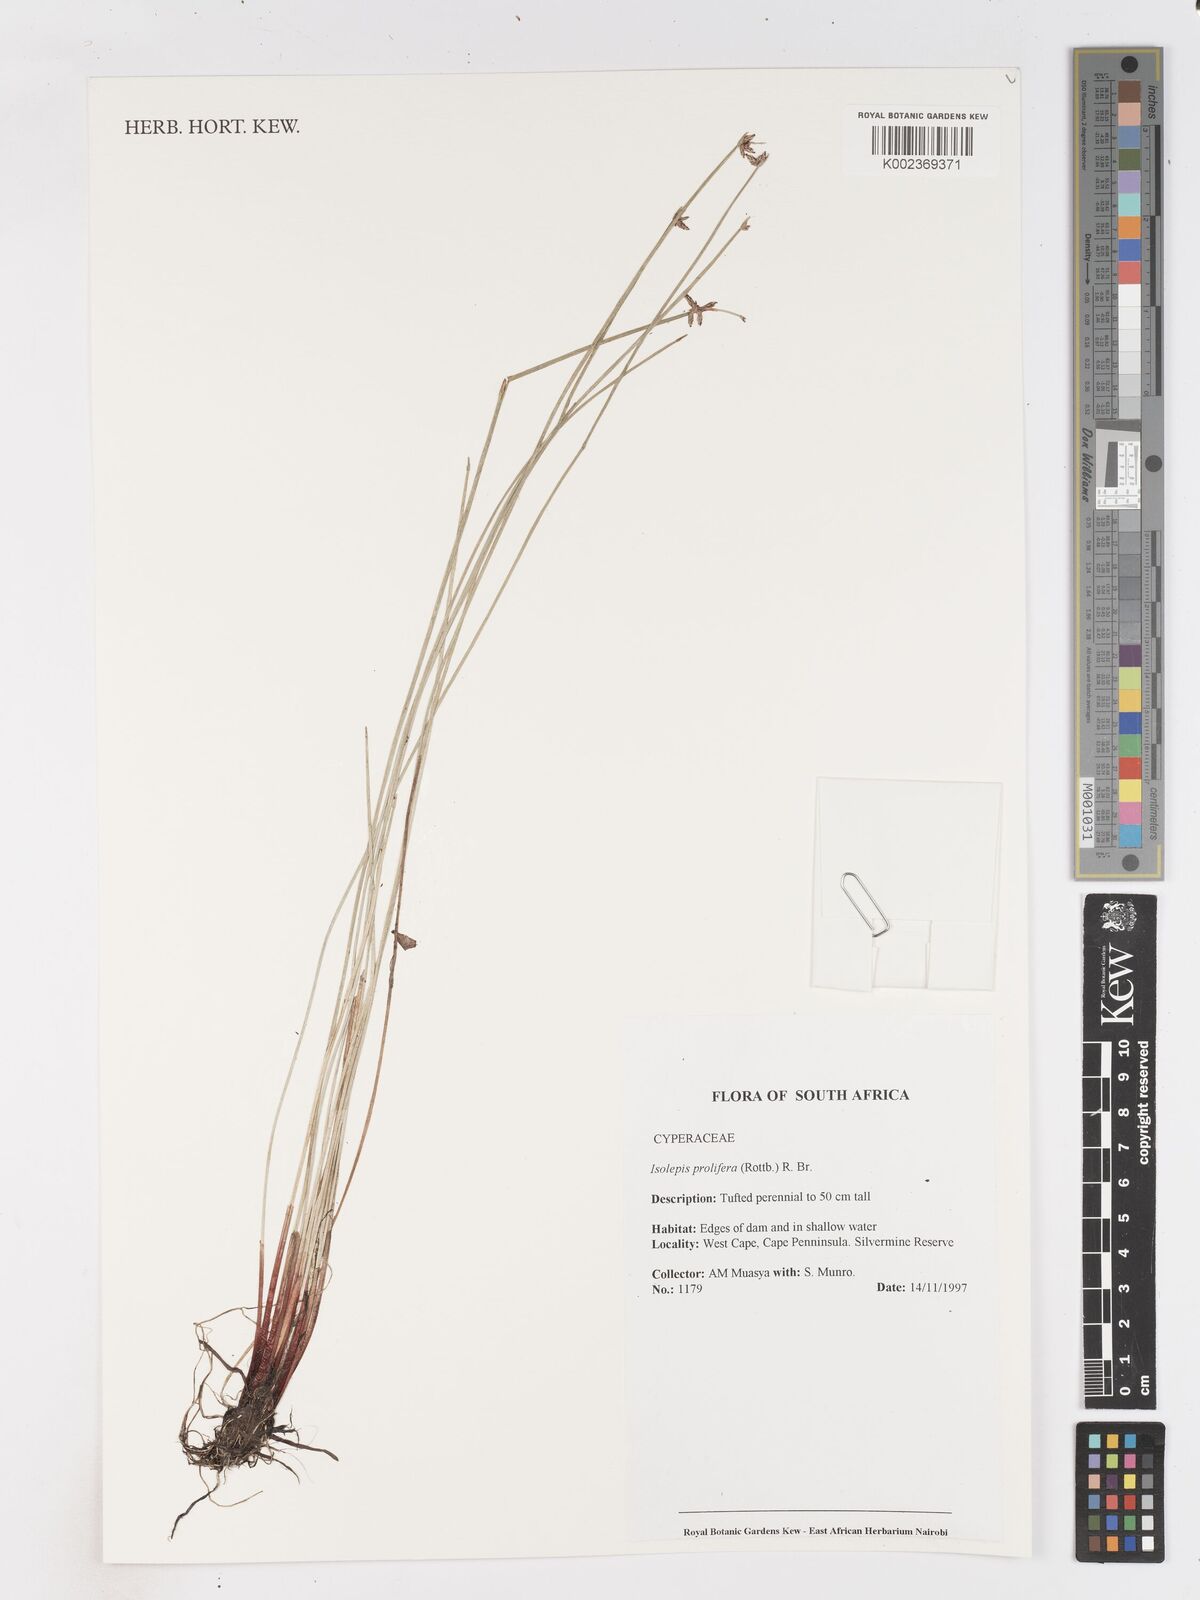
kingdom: Plantae
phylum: Tracheophyta
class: Liliopsida
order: Poales
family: Cyperaceae
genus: Isolepis
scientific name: Isolepis prolifera
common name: Proliferating bulrush
